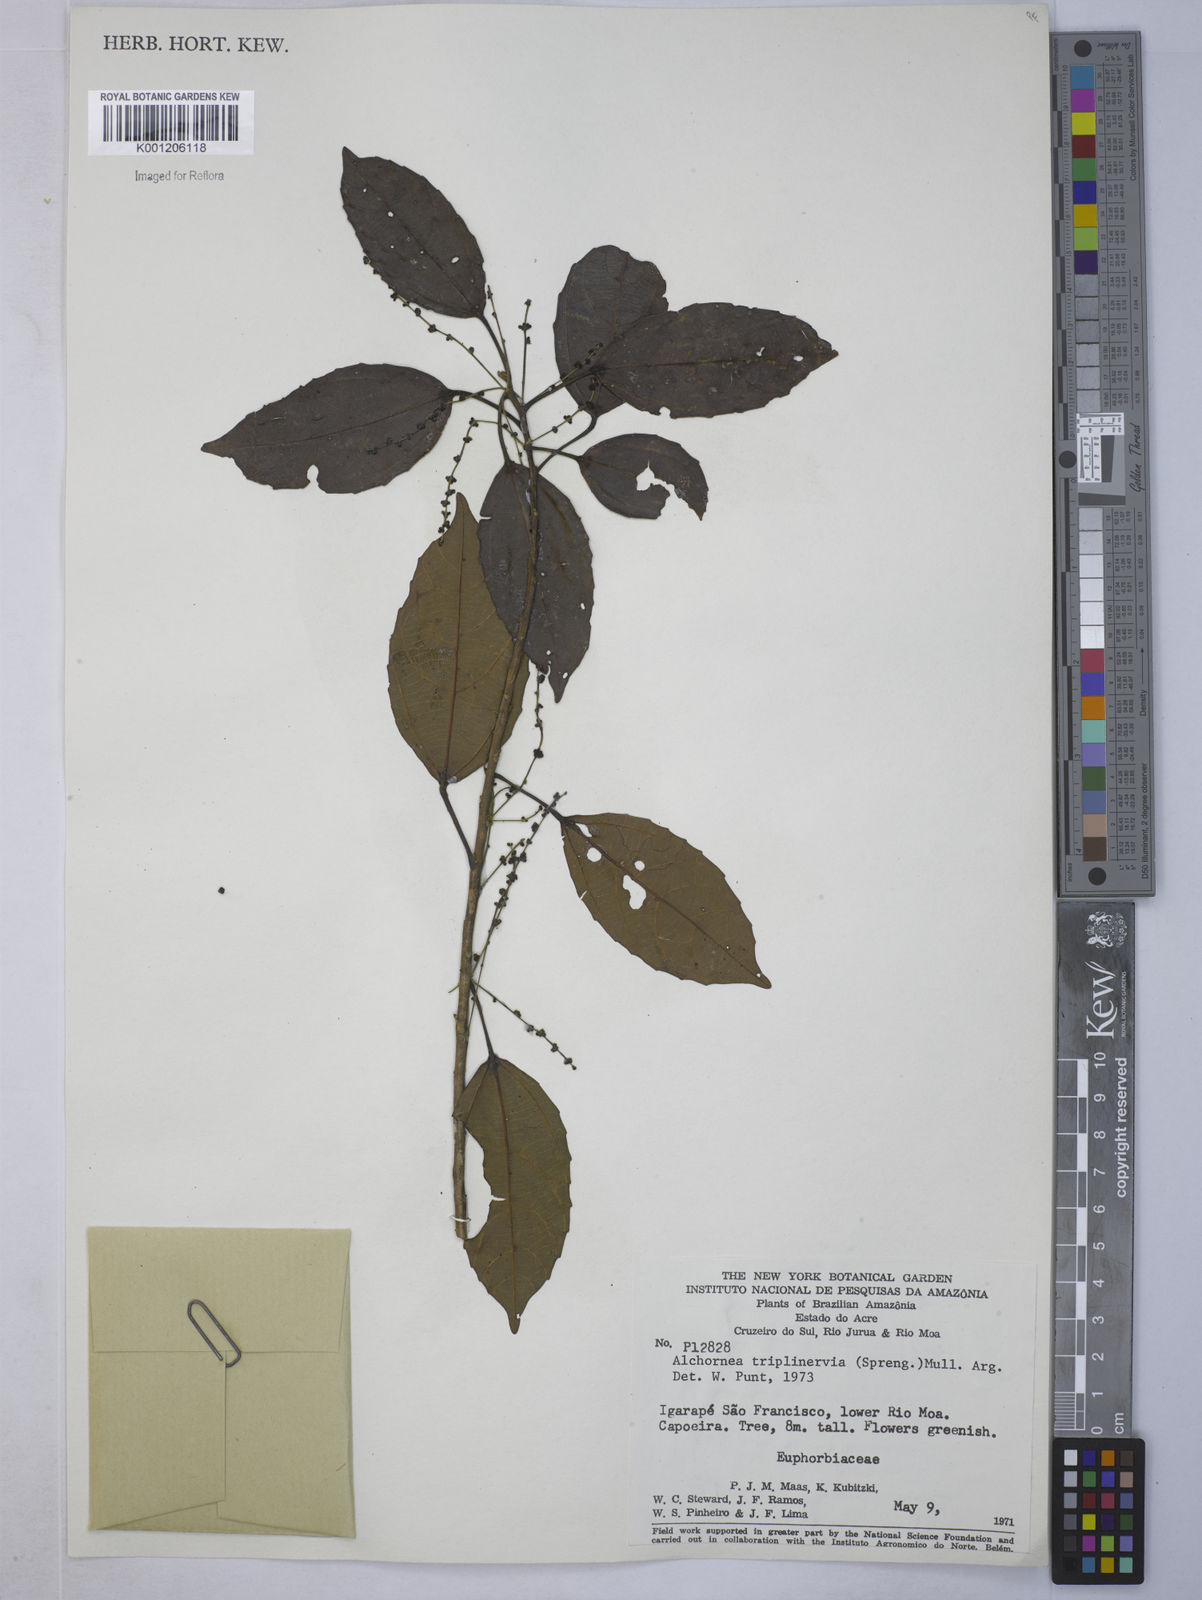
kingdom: Plantae
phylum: Tracheophyta
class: Magnoliopsida
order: Malpighiales
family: Euphorbiaceae
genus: Alchornea
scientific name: Alchornea
